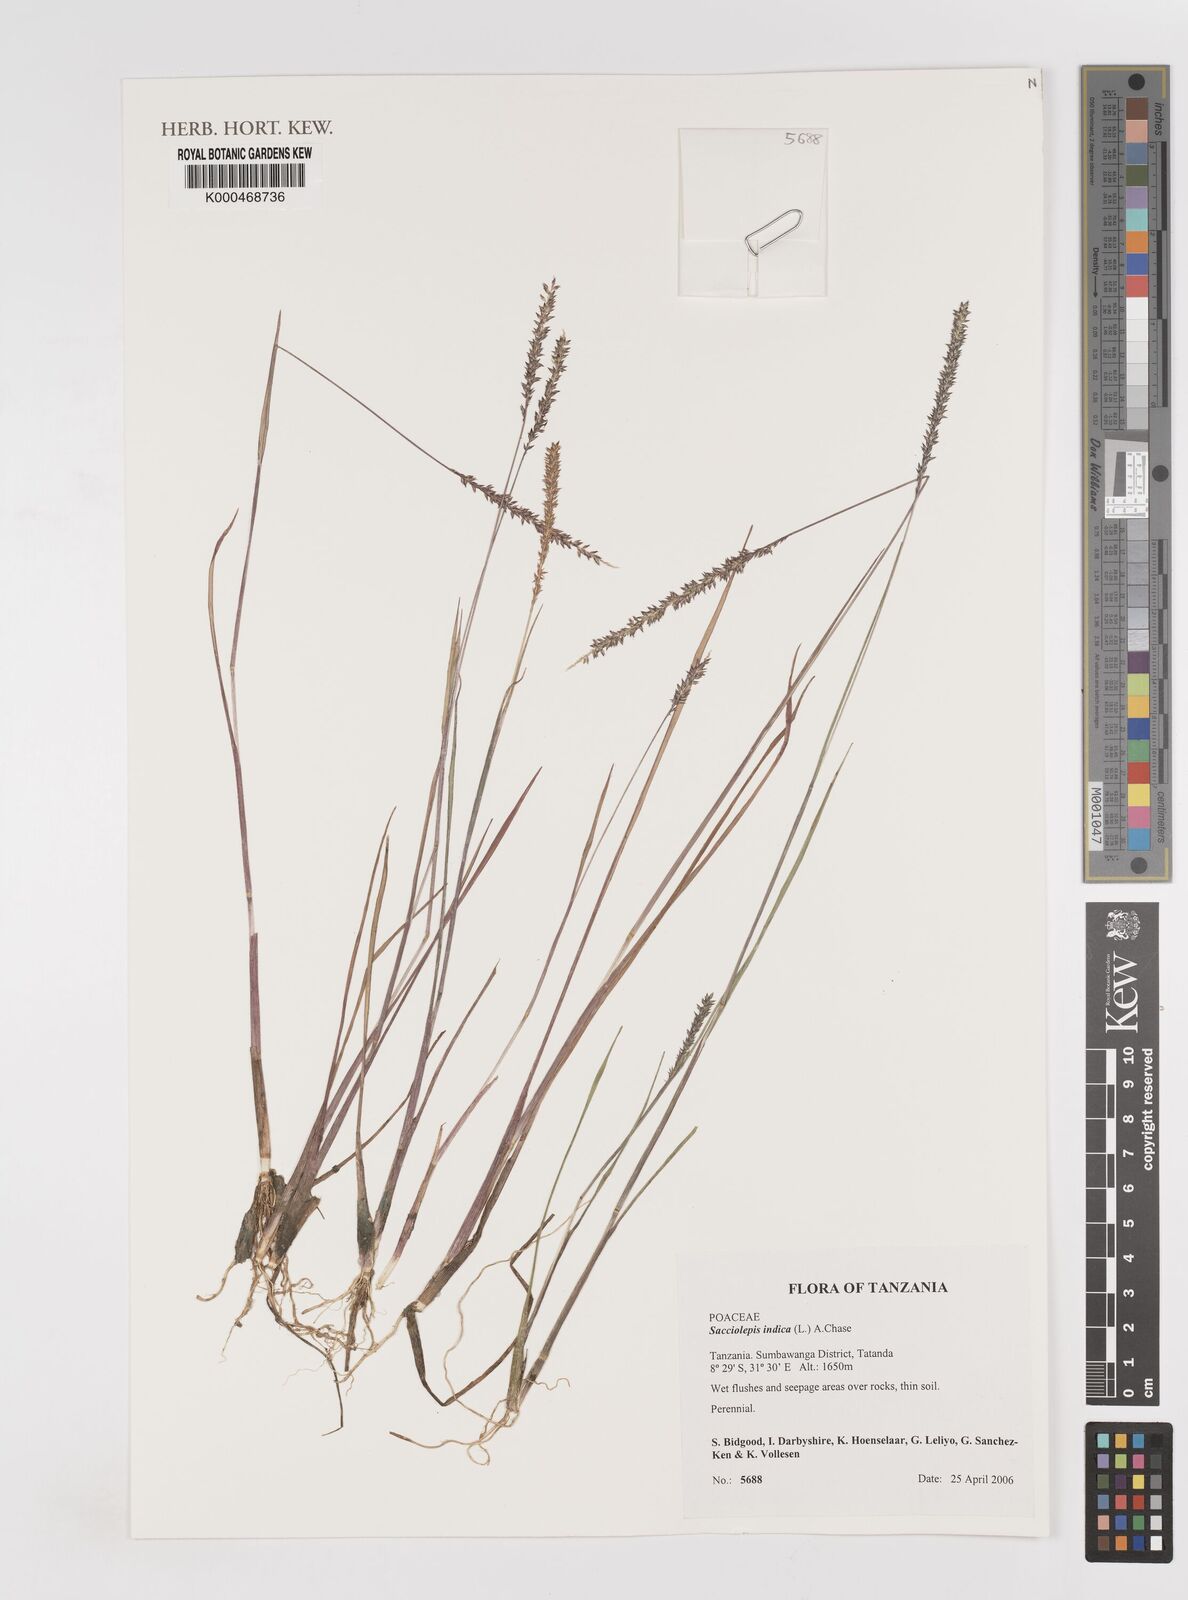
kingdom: Plantae
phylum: Tracheophyta
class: Liliopsida
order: Poales
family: Poaceae
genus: Sacciolepis
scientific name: Sacciolepis indica
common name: Glenwoodgrass
